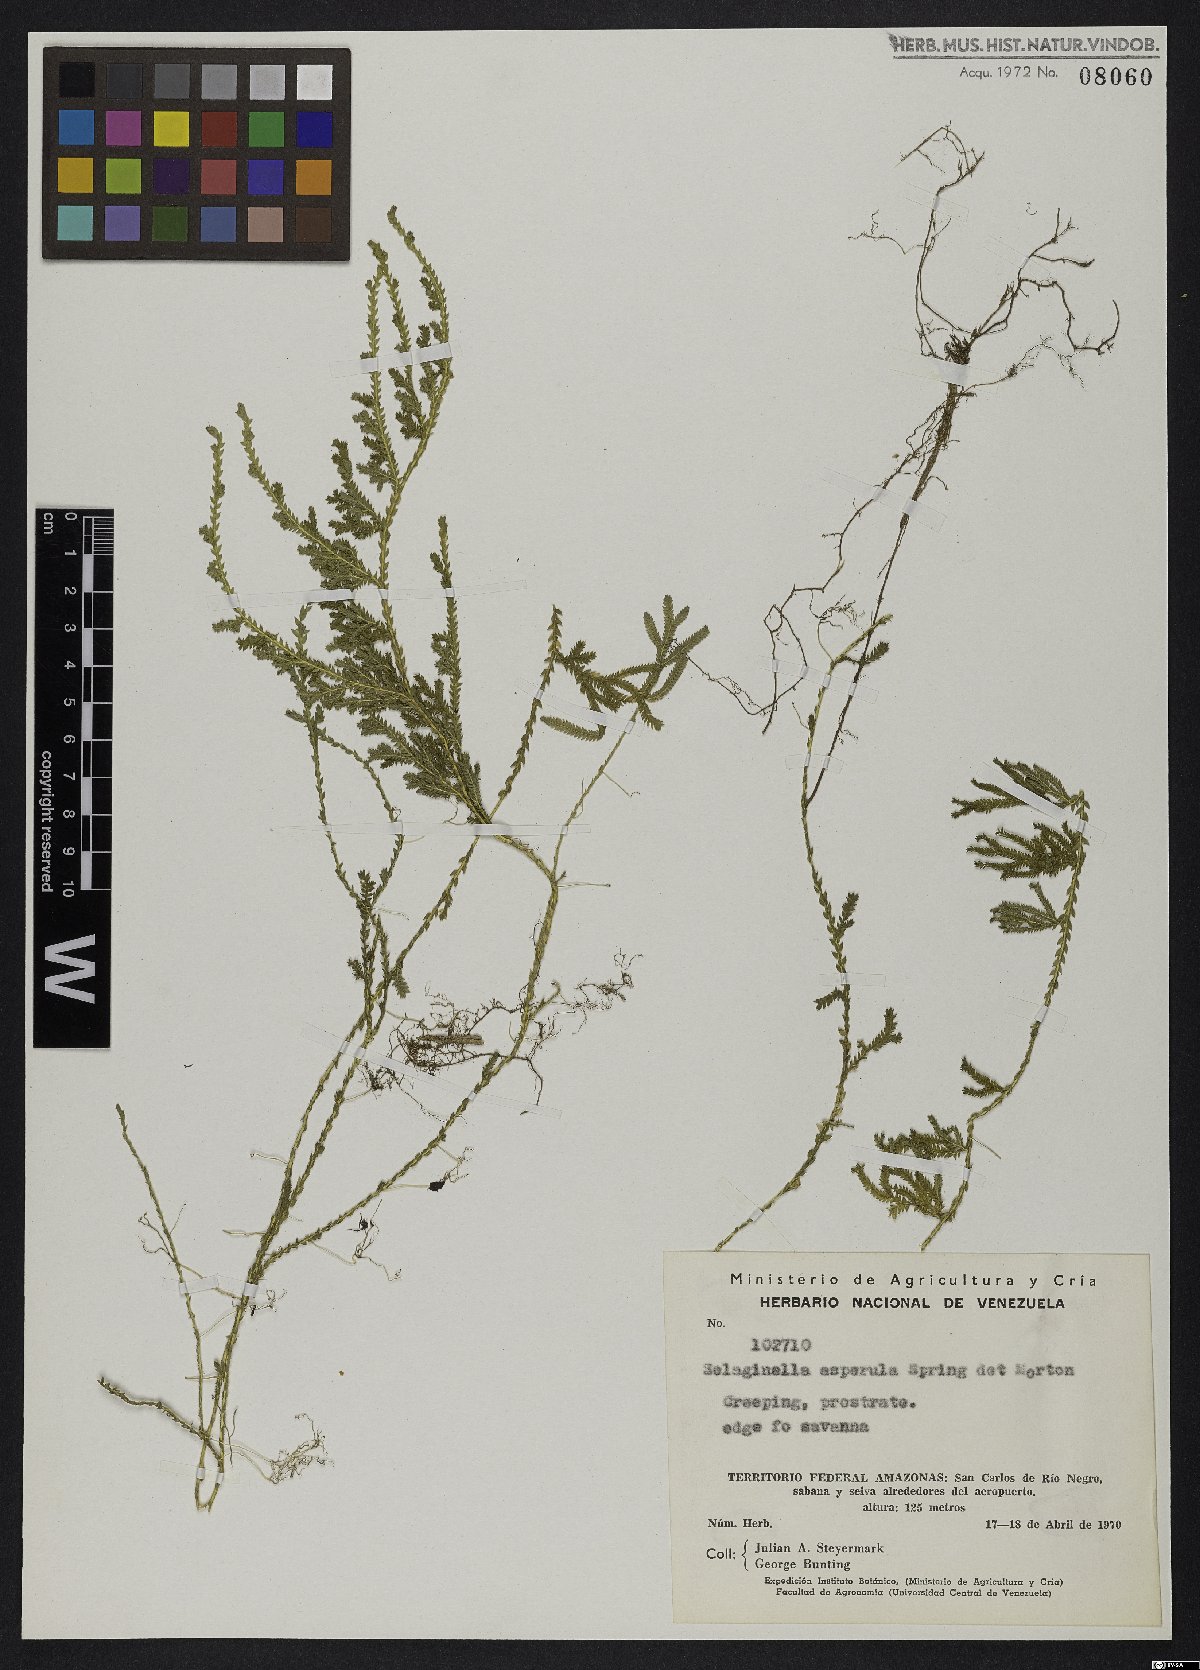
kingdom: Plantae
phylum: Tracheophyta
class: Lycopodiopsida
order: Selaginellales
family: Selaginellaceae
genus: Selaginella
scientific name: Selaginella asperula
